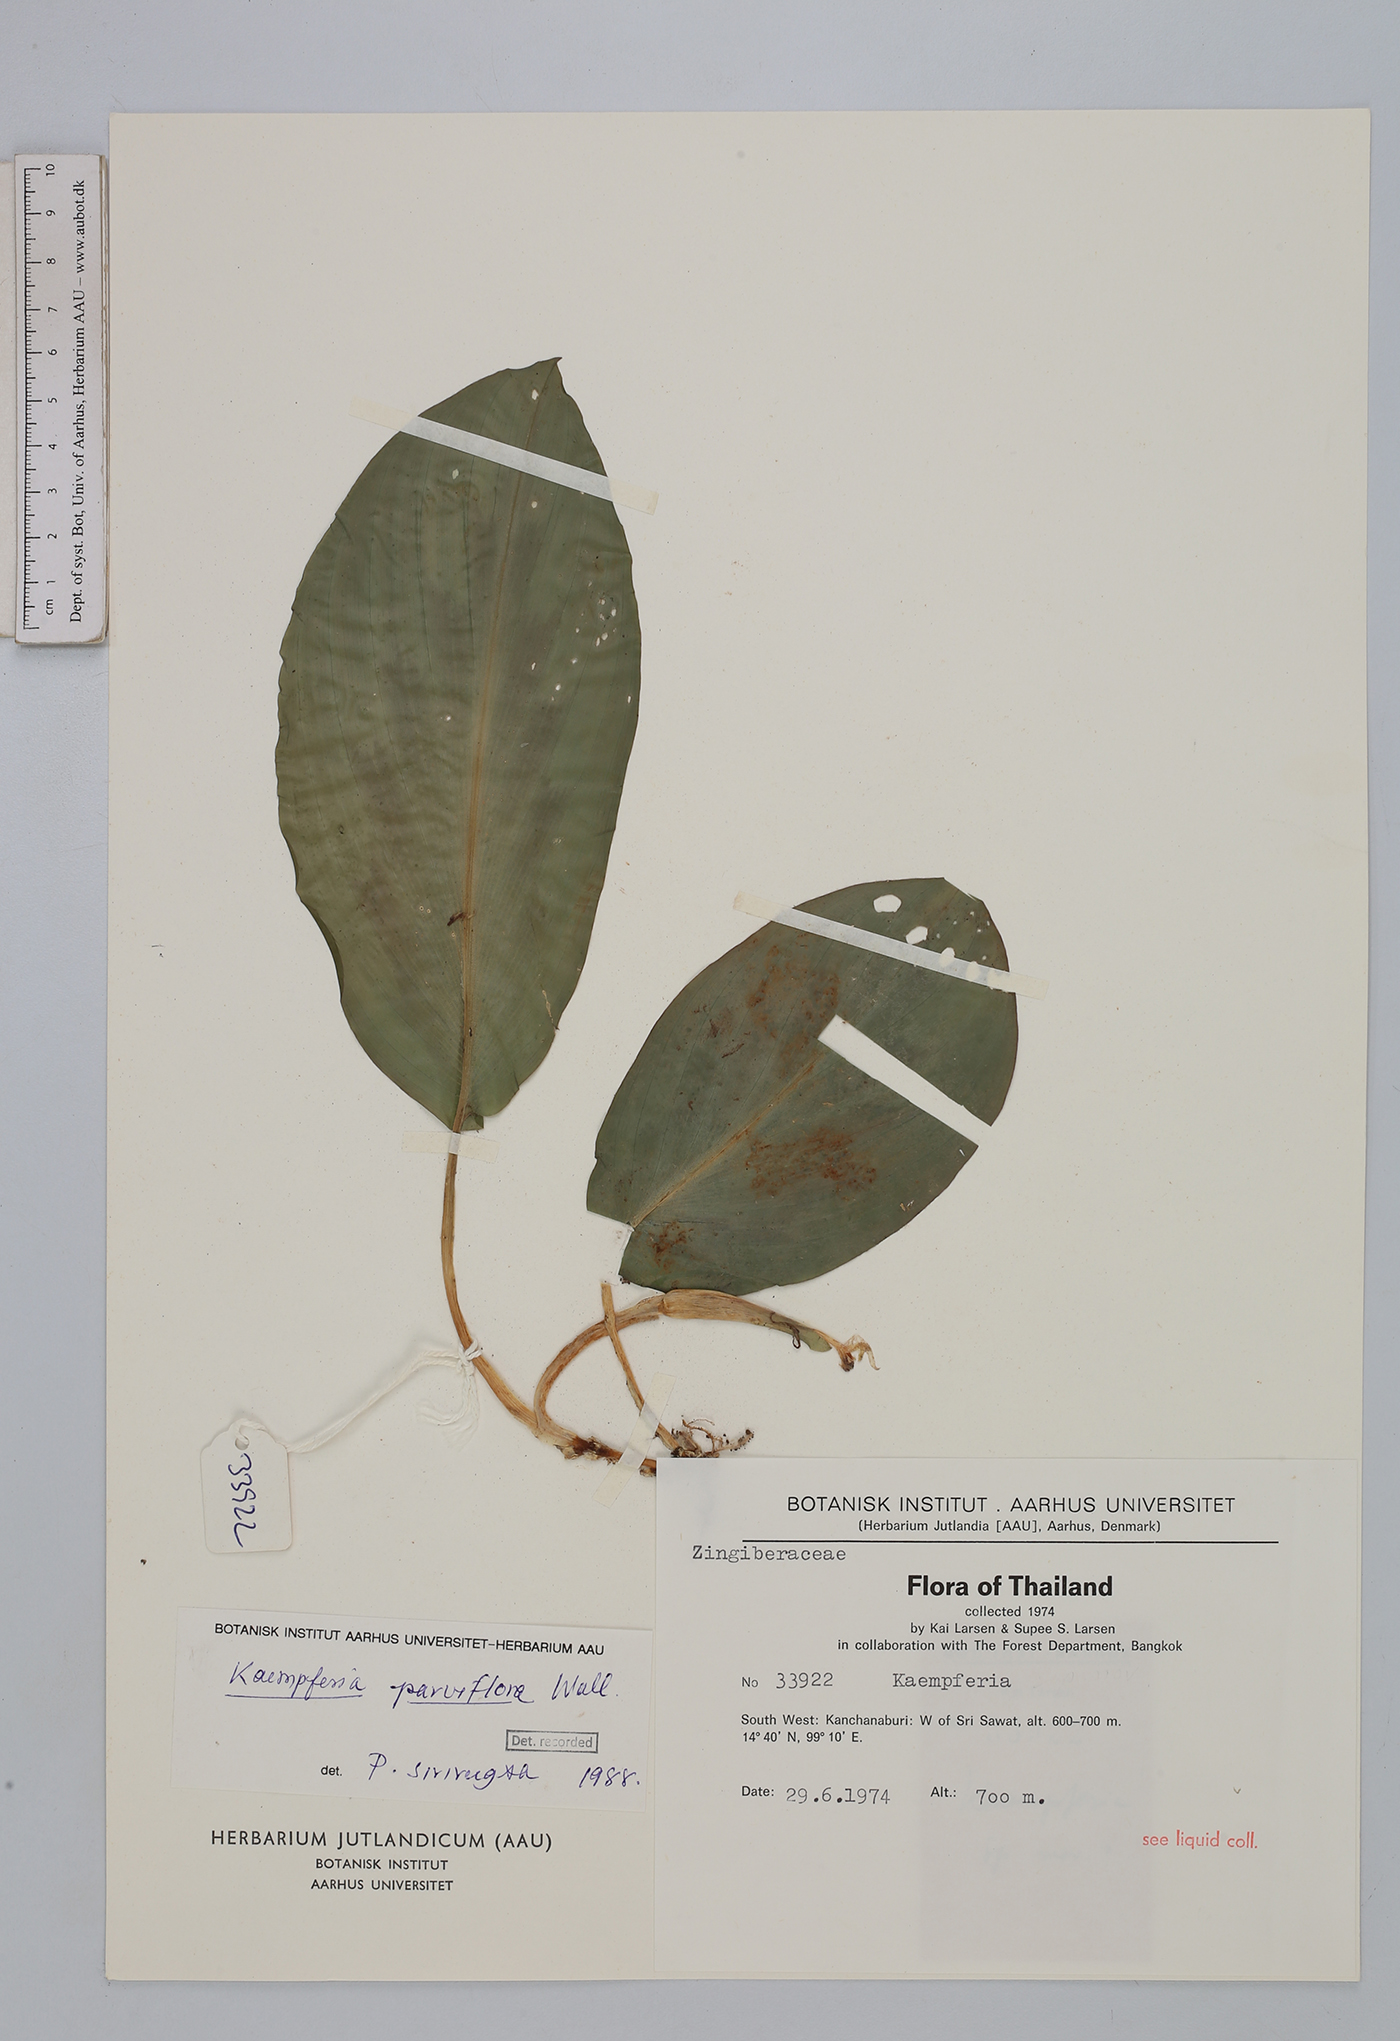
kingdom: Plantae
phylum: Tracheophyta
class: Liliopsida
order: Zingiberales
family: Zingiberaceae
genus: Kaempferia
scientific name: Kaempferia parviflora
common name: Black galingale
